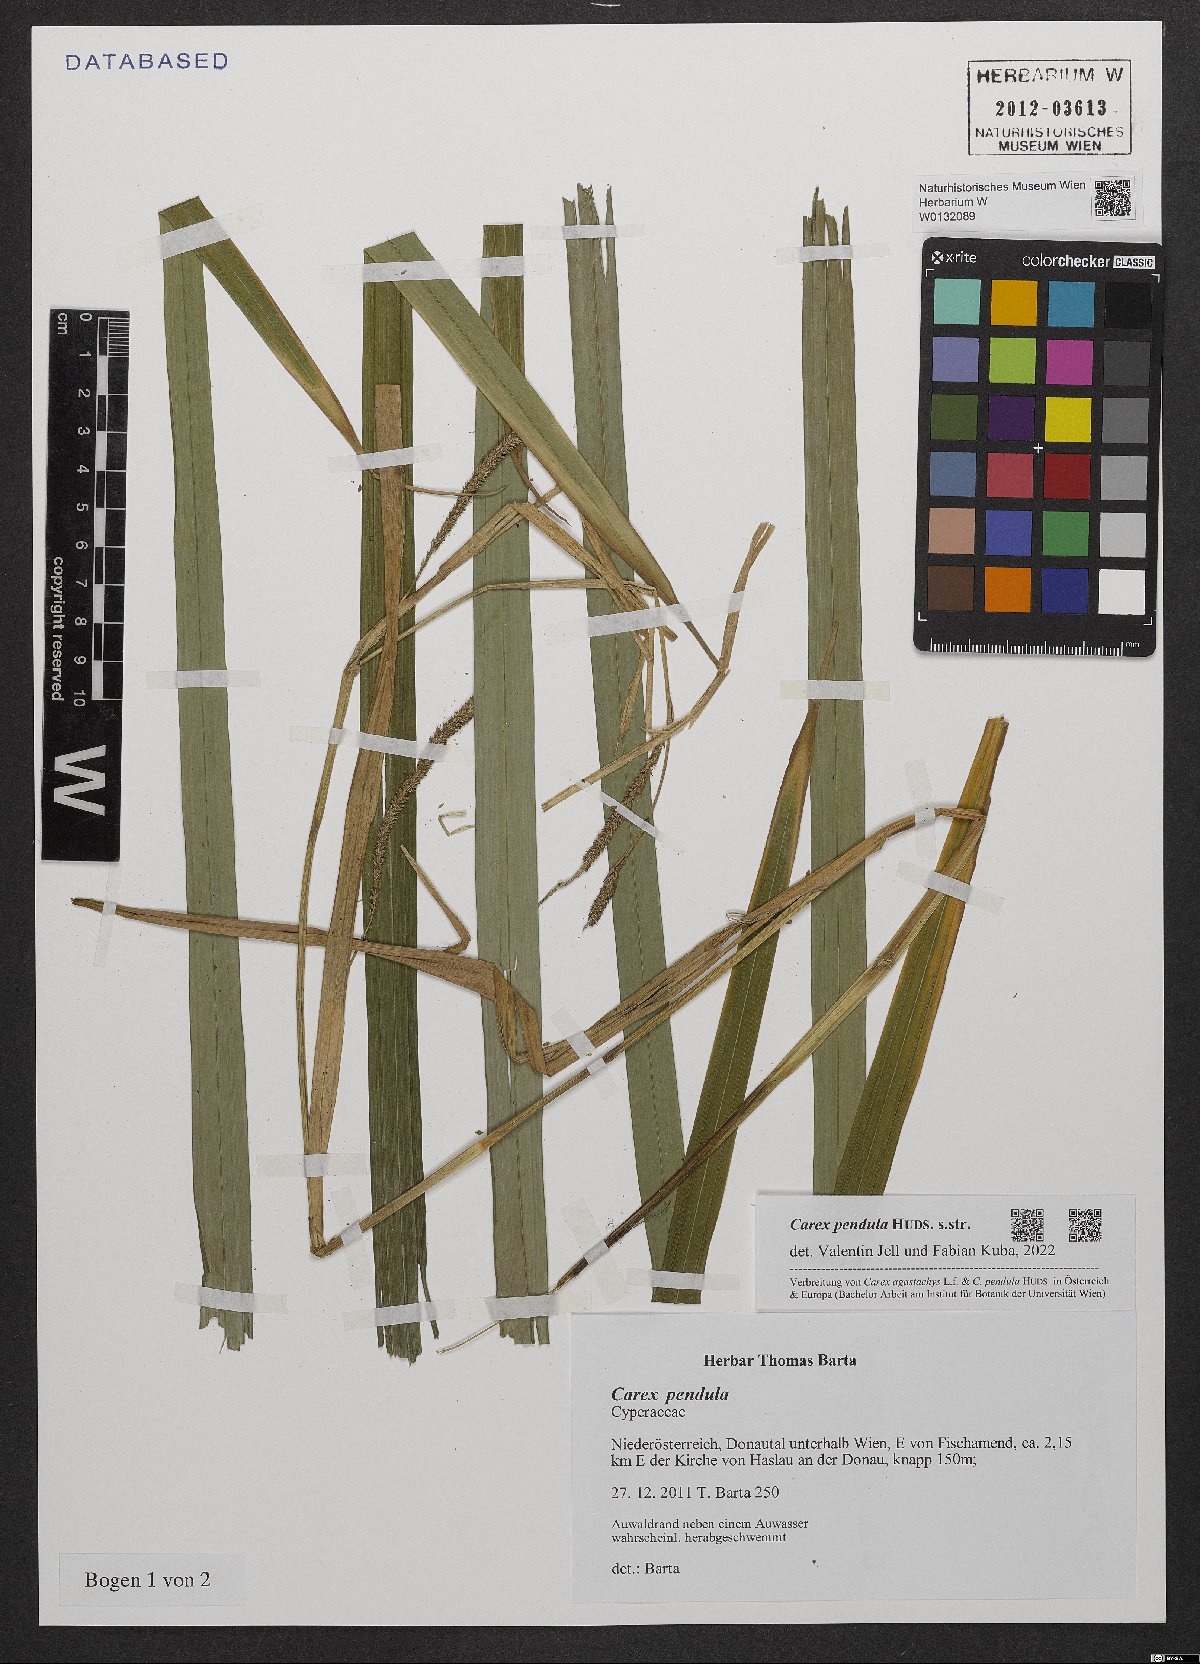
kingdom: Plantae
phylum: Tracheophyta
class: Liliopsida
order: Poales
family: Cyperaceae
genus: Carex
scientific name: Carex pendula
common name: Pendulous sedge
